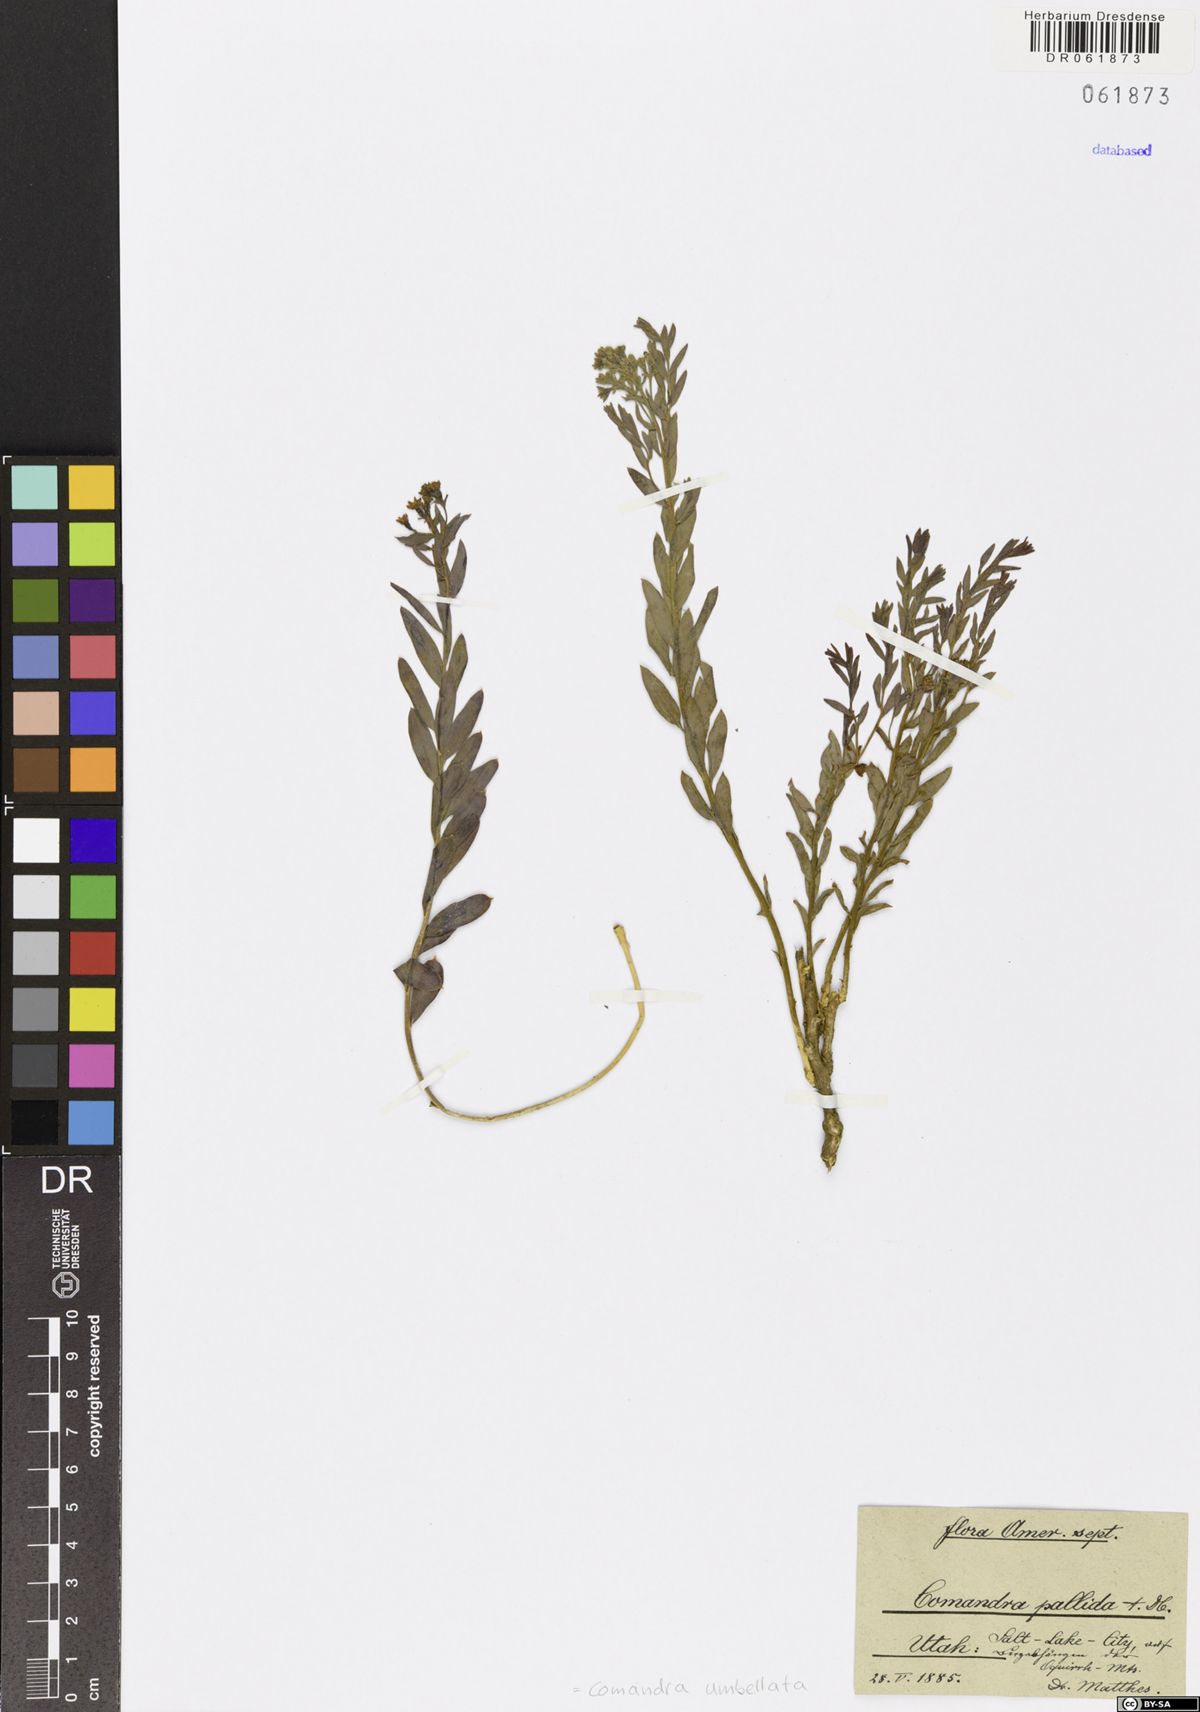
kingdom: Plantae
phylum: Tracheophyta
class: Magnoliopsida
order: Santalales
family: Comandraceae
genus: Comandra
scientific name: Comandra umbellata
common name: Bastard toadflax
